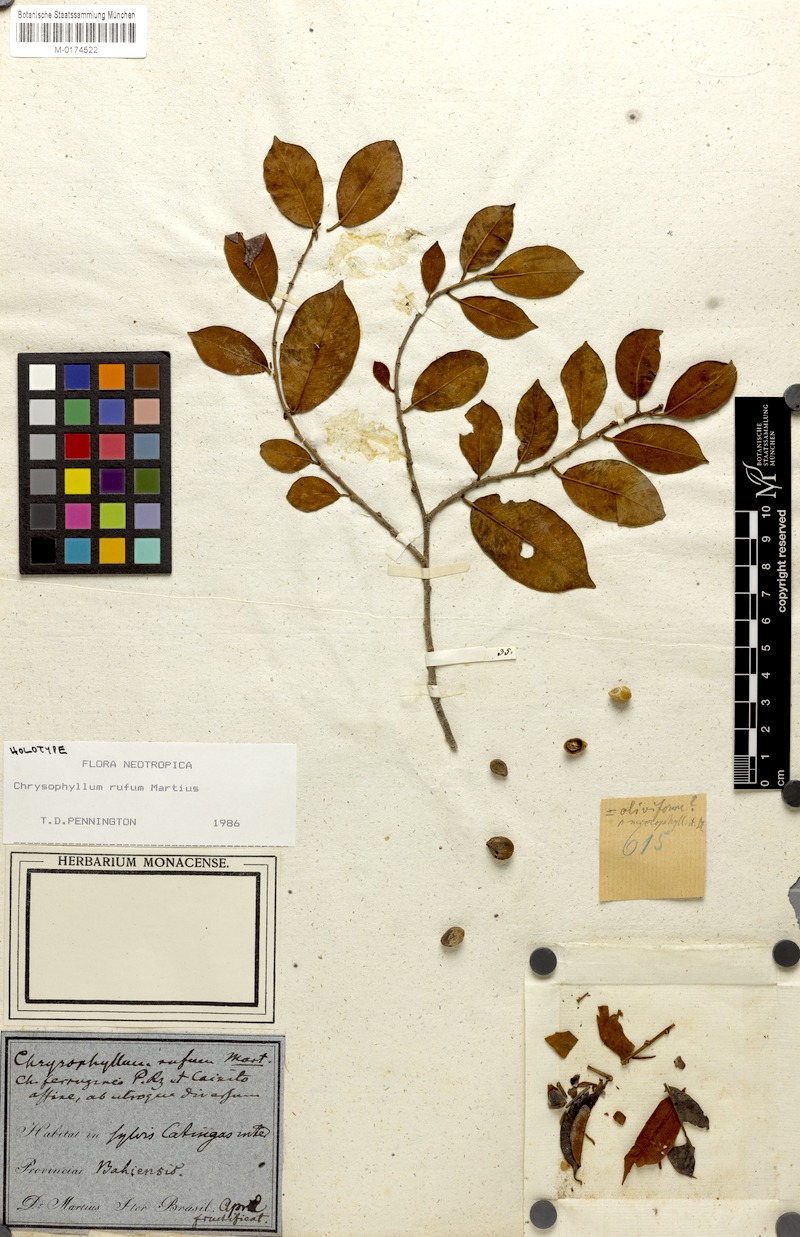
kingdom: Plantae
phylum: Tracheophyta
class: Magnoliopsida
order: Ericales
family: Sapotaceae
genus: Chrysophyllum
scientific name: Chrysophyllum rufum
